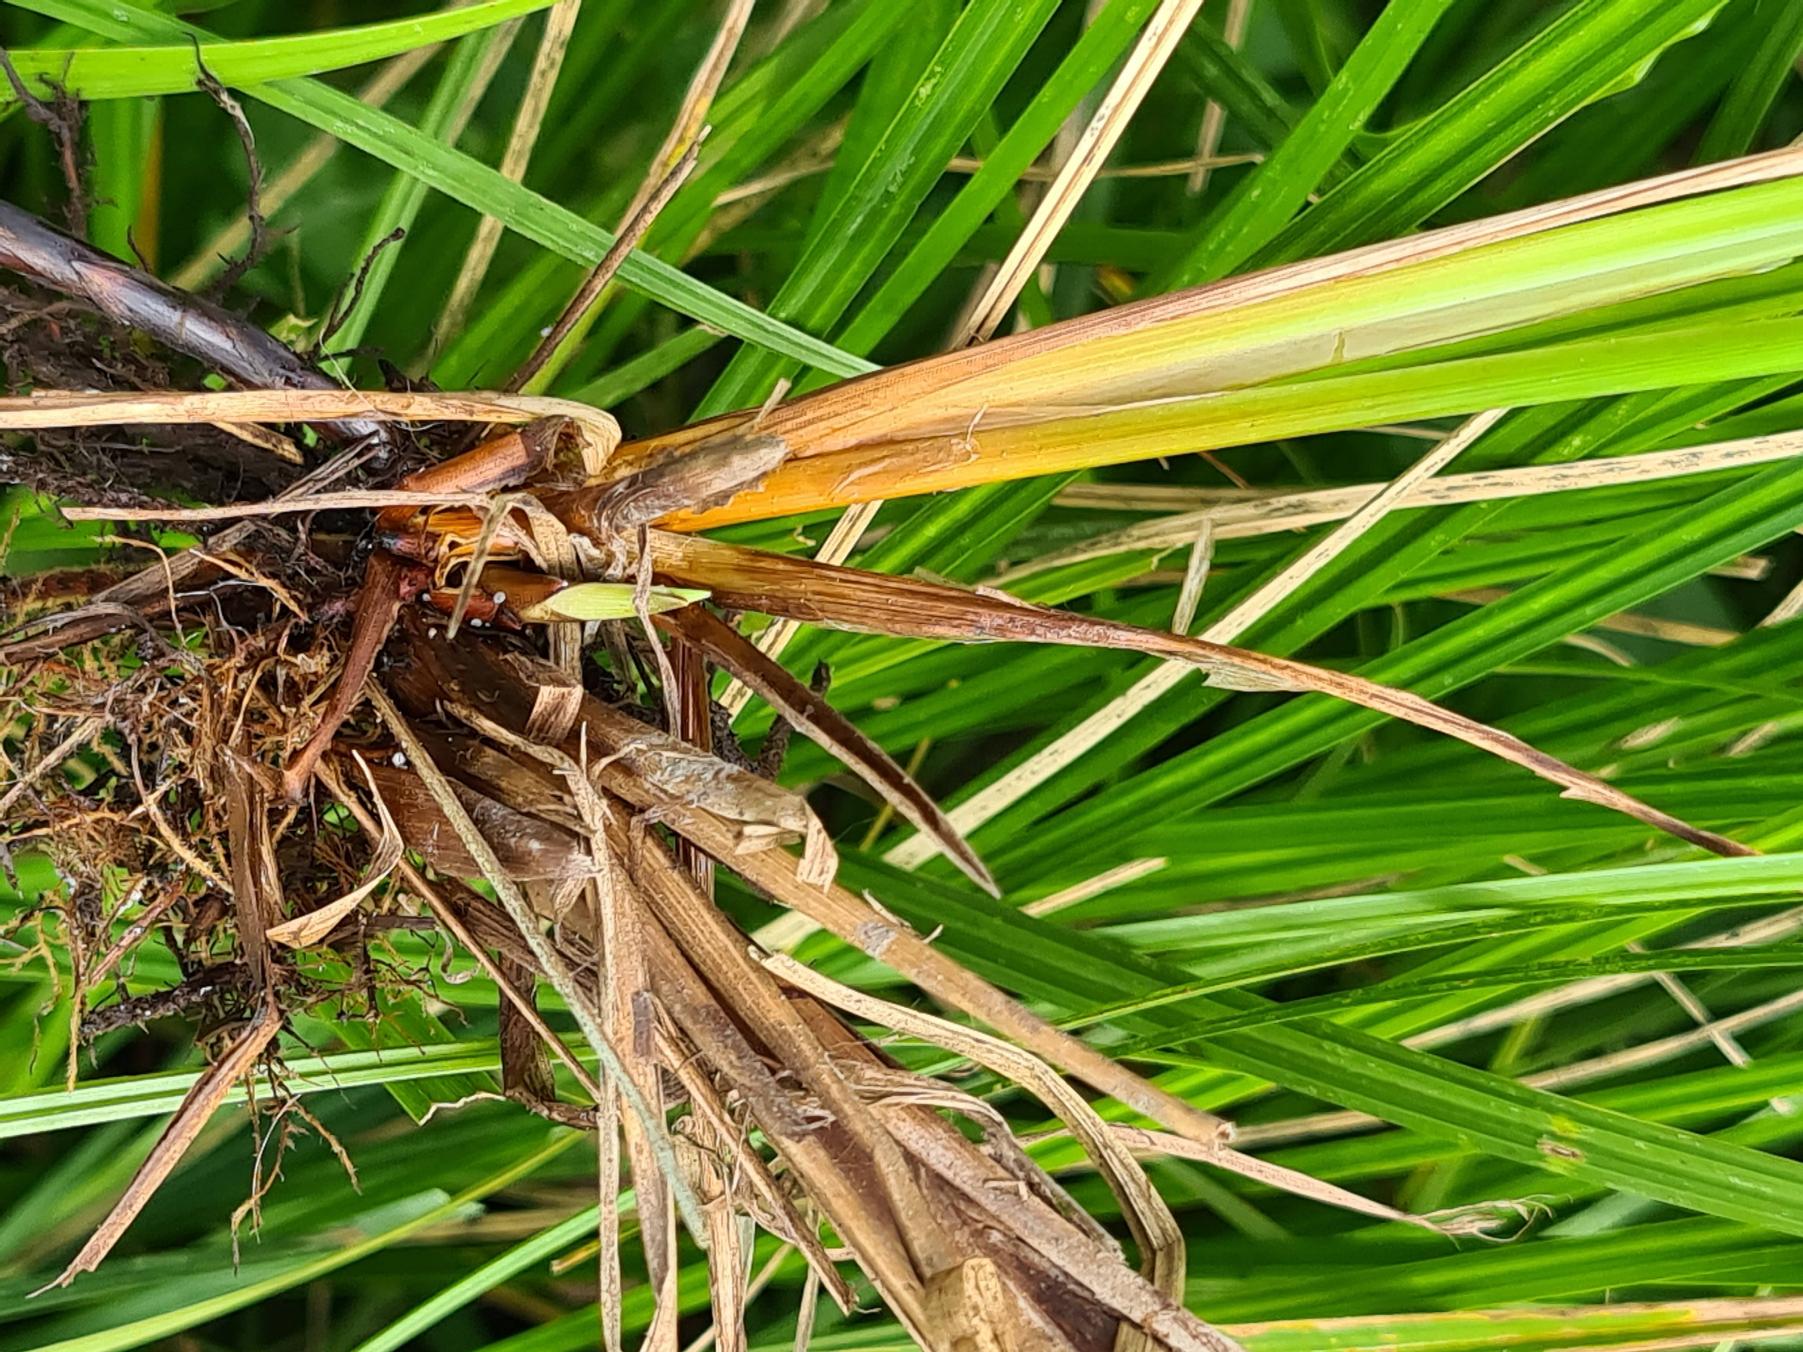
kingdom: Plantae
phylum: Tracheophyta
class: Liliopsida
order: Poales
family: Cyperaceae
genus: Carex
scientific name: Carex acuta
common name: Nikkende star
